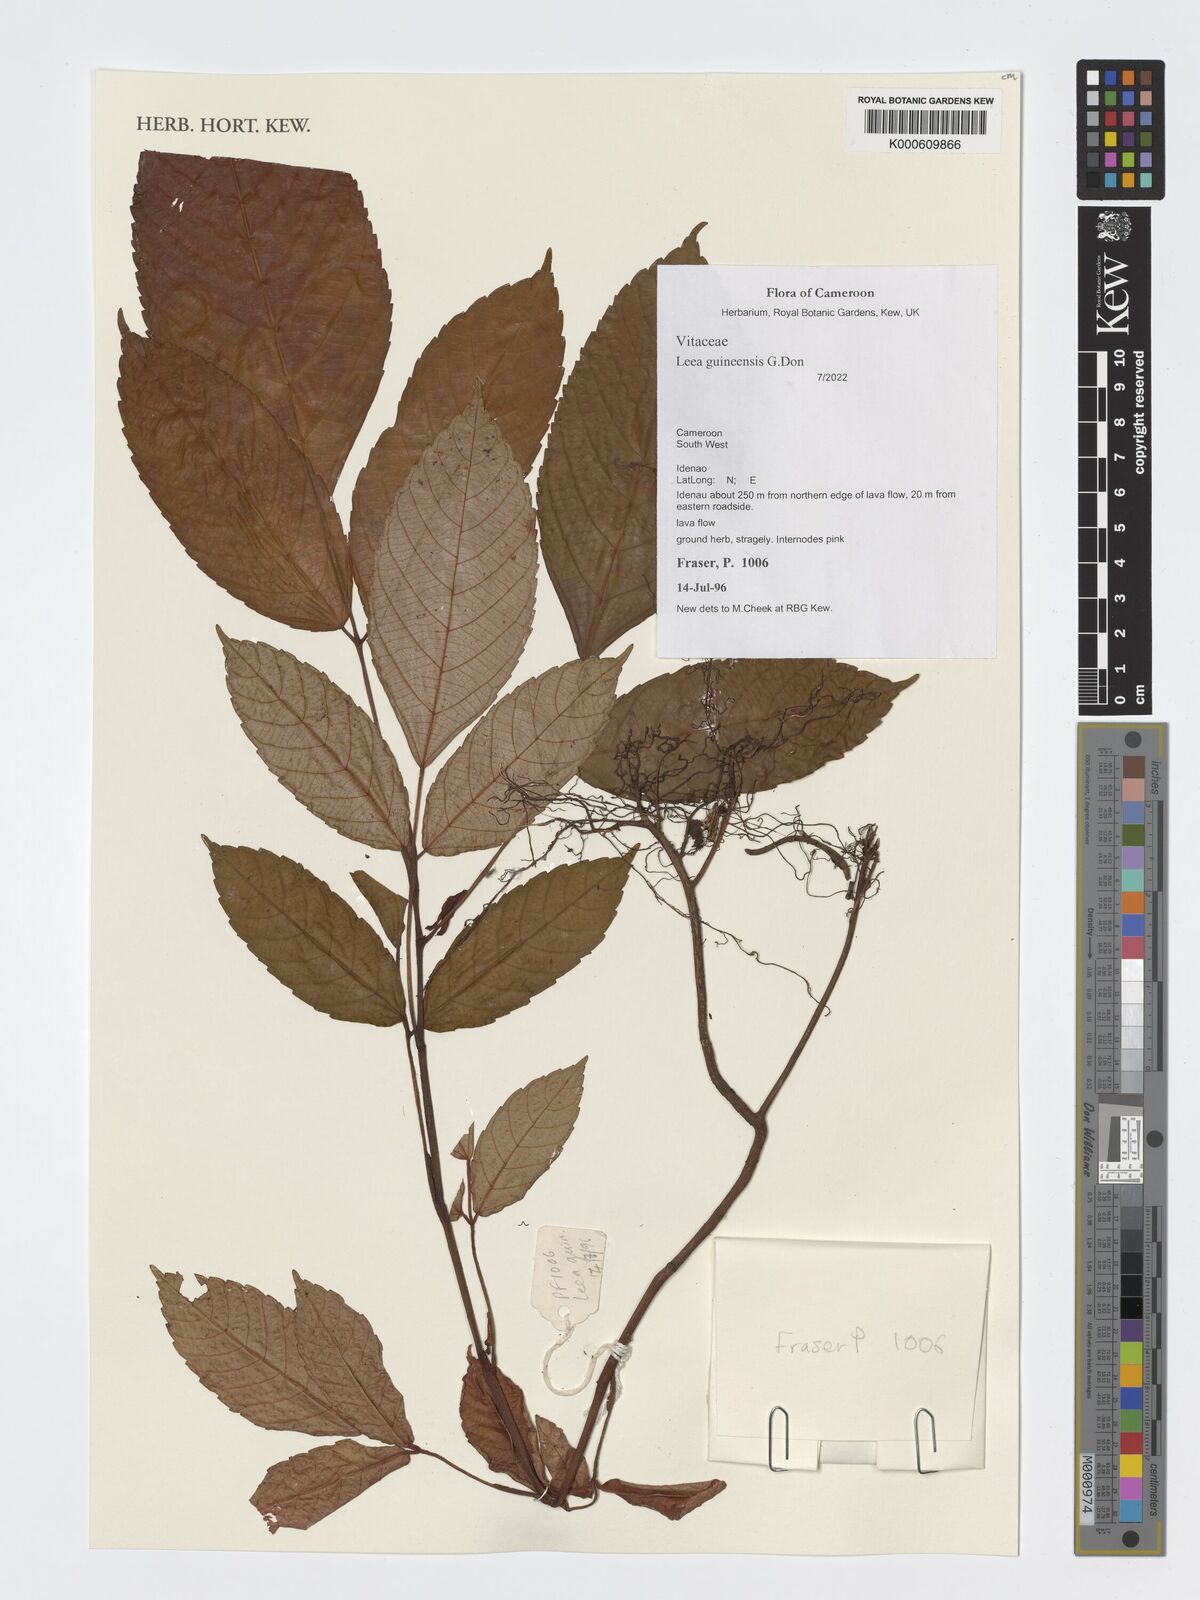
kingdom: Plantae
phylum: Tracheophyta
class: Magnoliopsida
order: Vitales
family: Vitaceae
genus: Leea
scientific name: Leea guineensis
